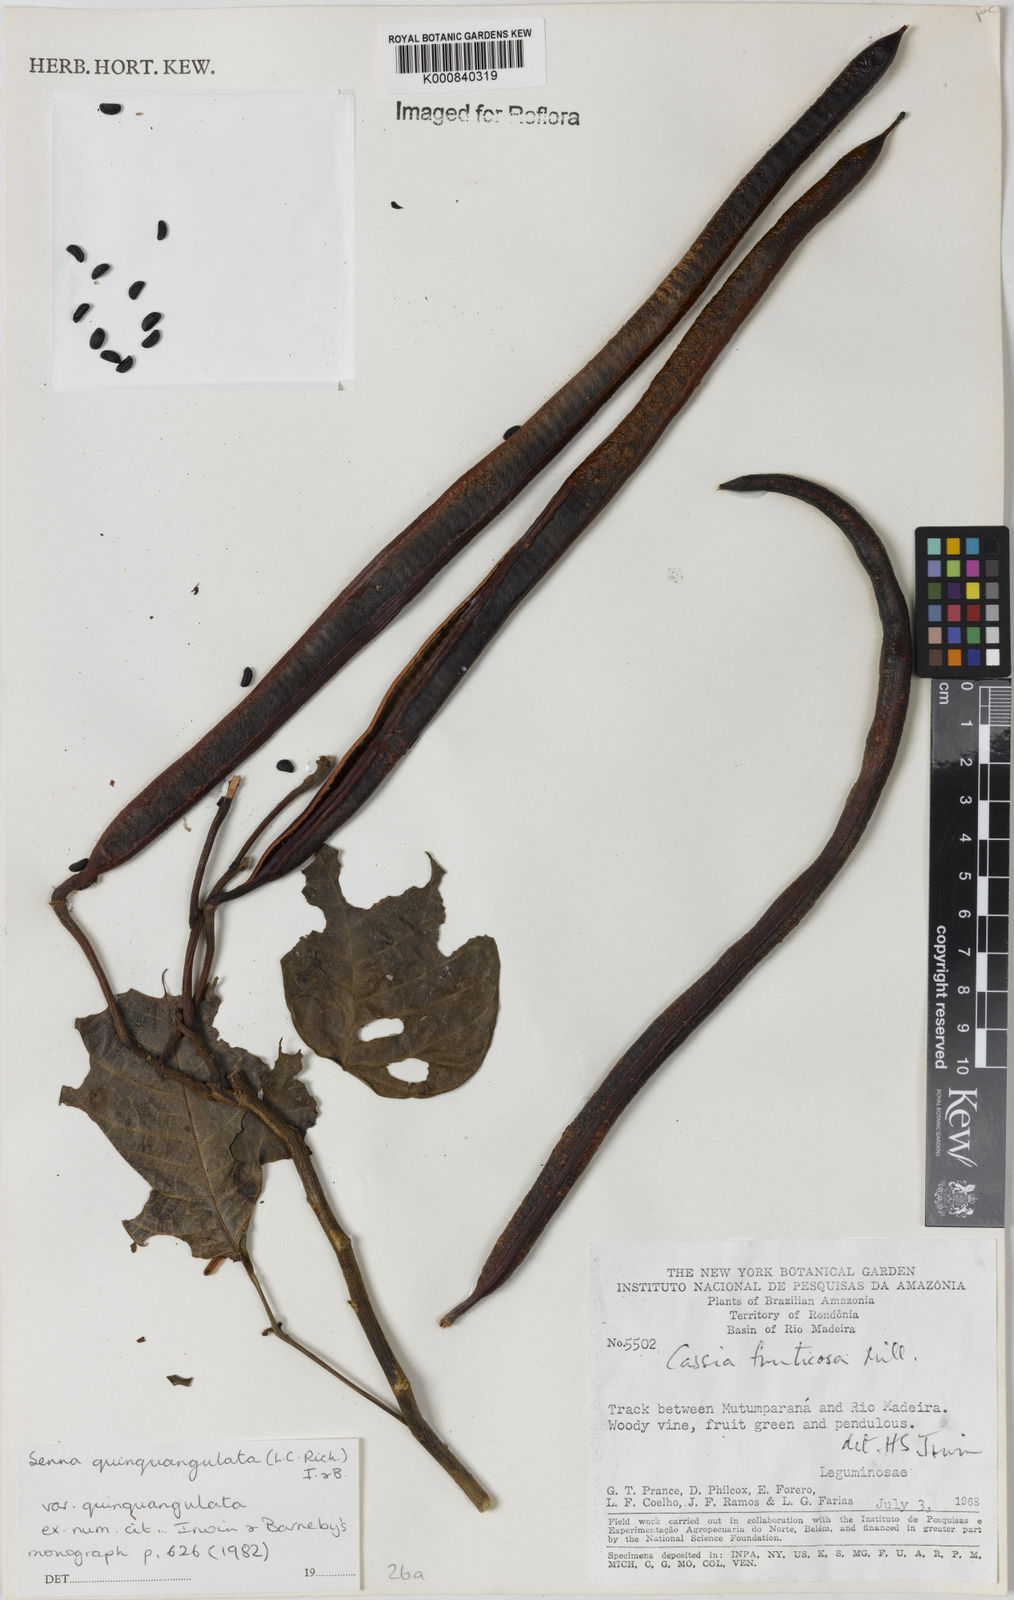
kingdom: Plantae
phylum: Tracheophyta
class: Magnoliopsida
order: Fabales
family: Fabaceae
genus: Senna
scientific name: Senna
